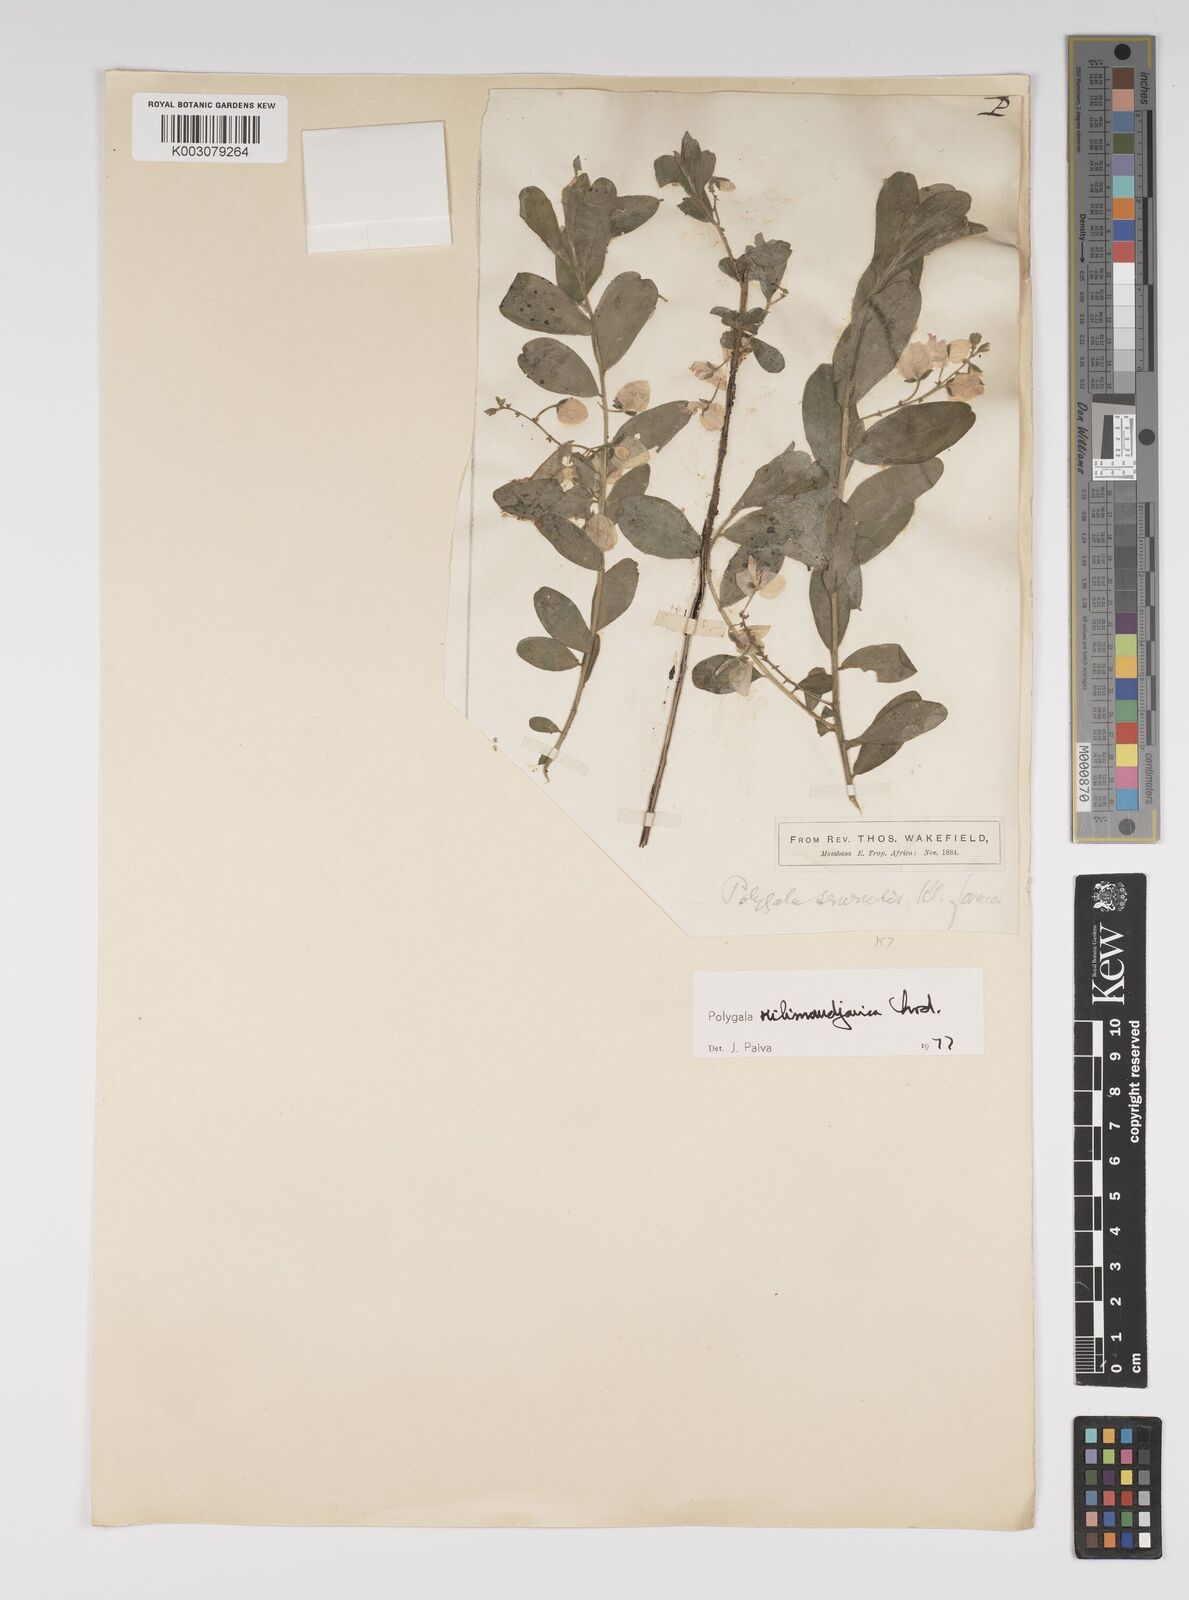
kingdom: Plantae
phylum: Tracheophyta
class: Magnoliopsida
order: Fabales
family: Polygalaceae
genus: Polygala
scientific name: Polygala kilimandjarica
